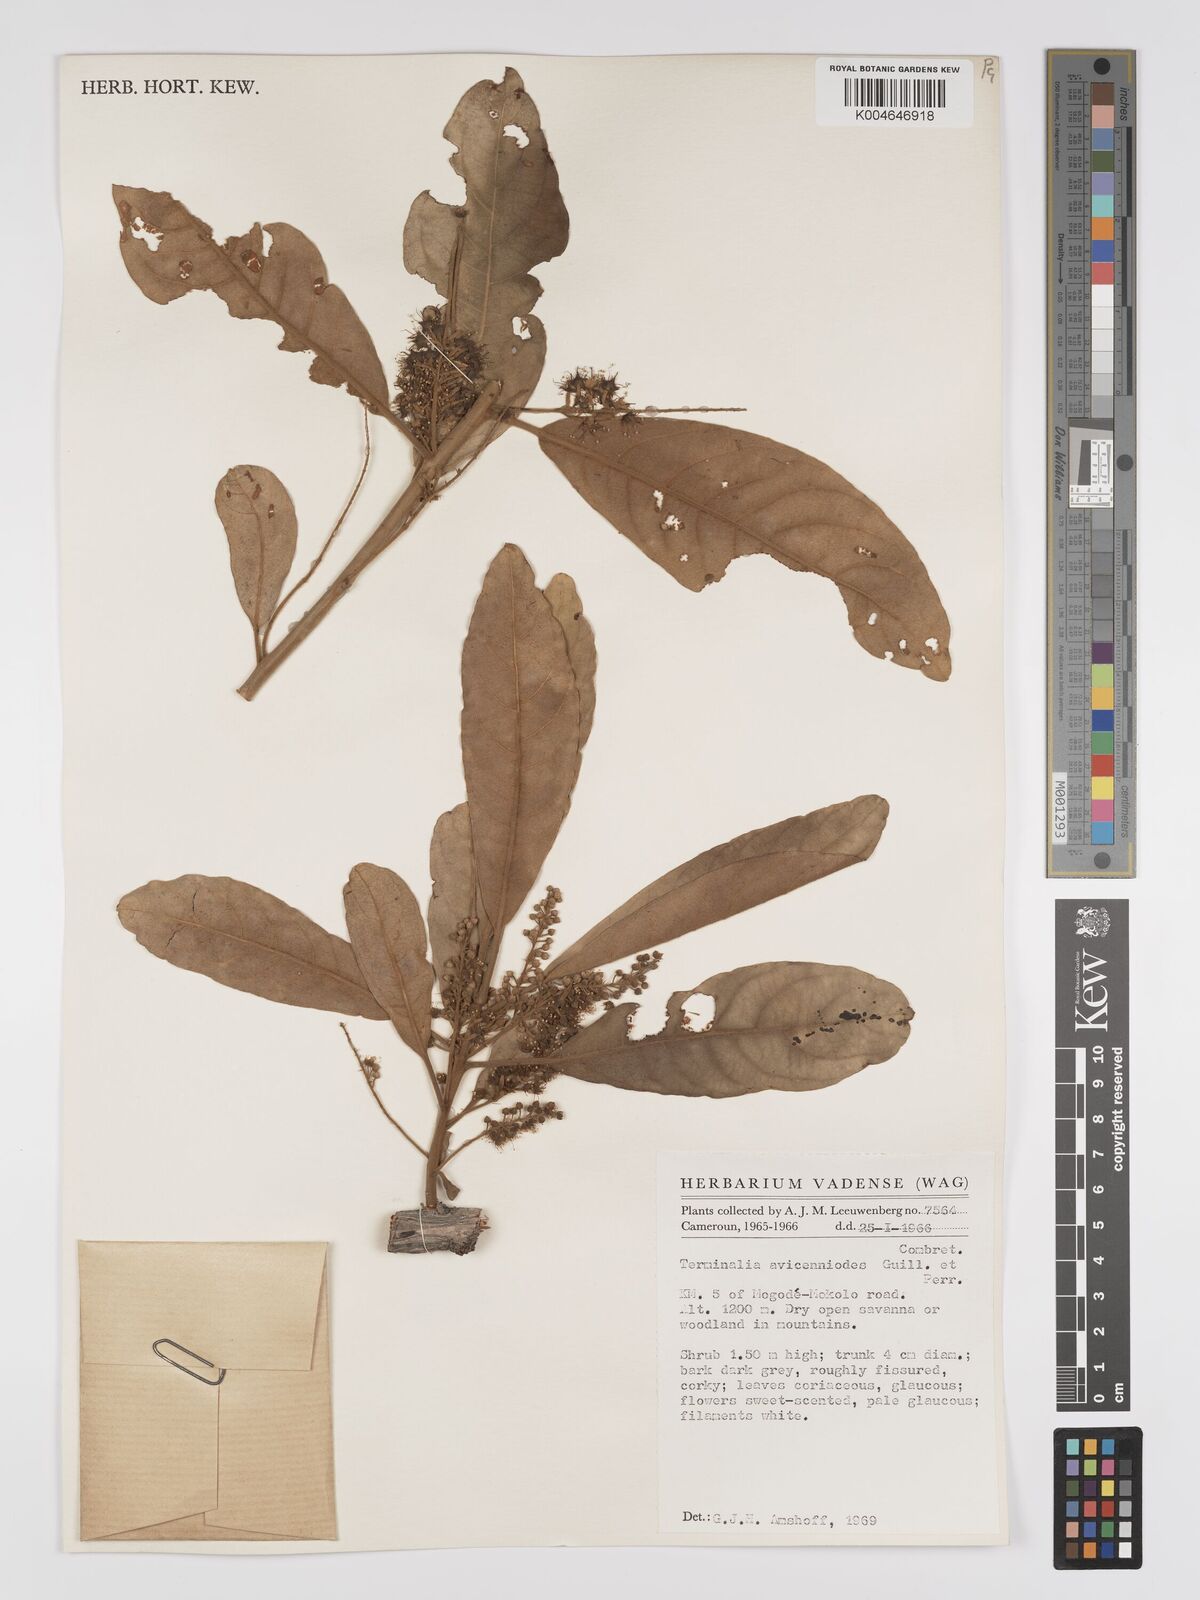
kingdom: Plantae
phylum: Tracheophyta
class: Magnoliopsida
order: Myrtales
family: Combretaceae
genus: Terminalia
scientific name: Terminalia avicennioides
